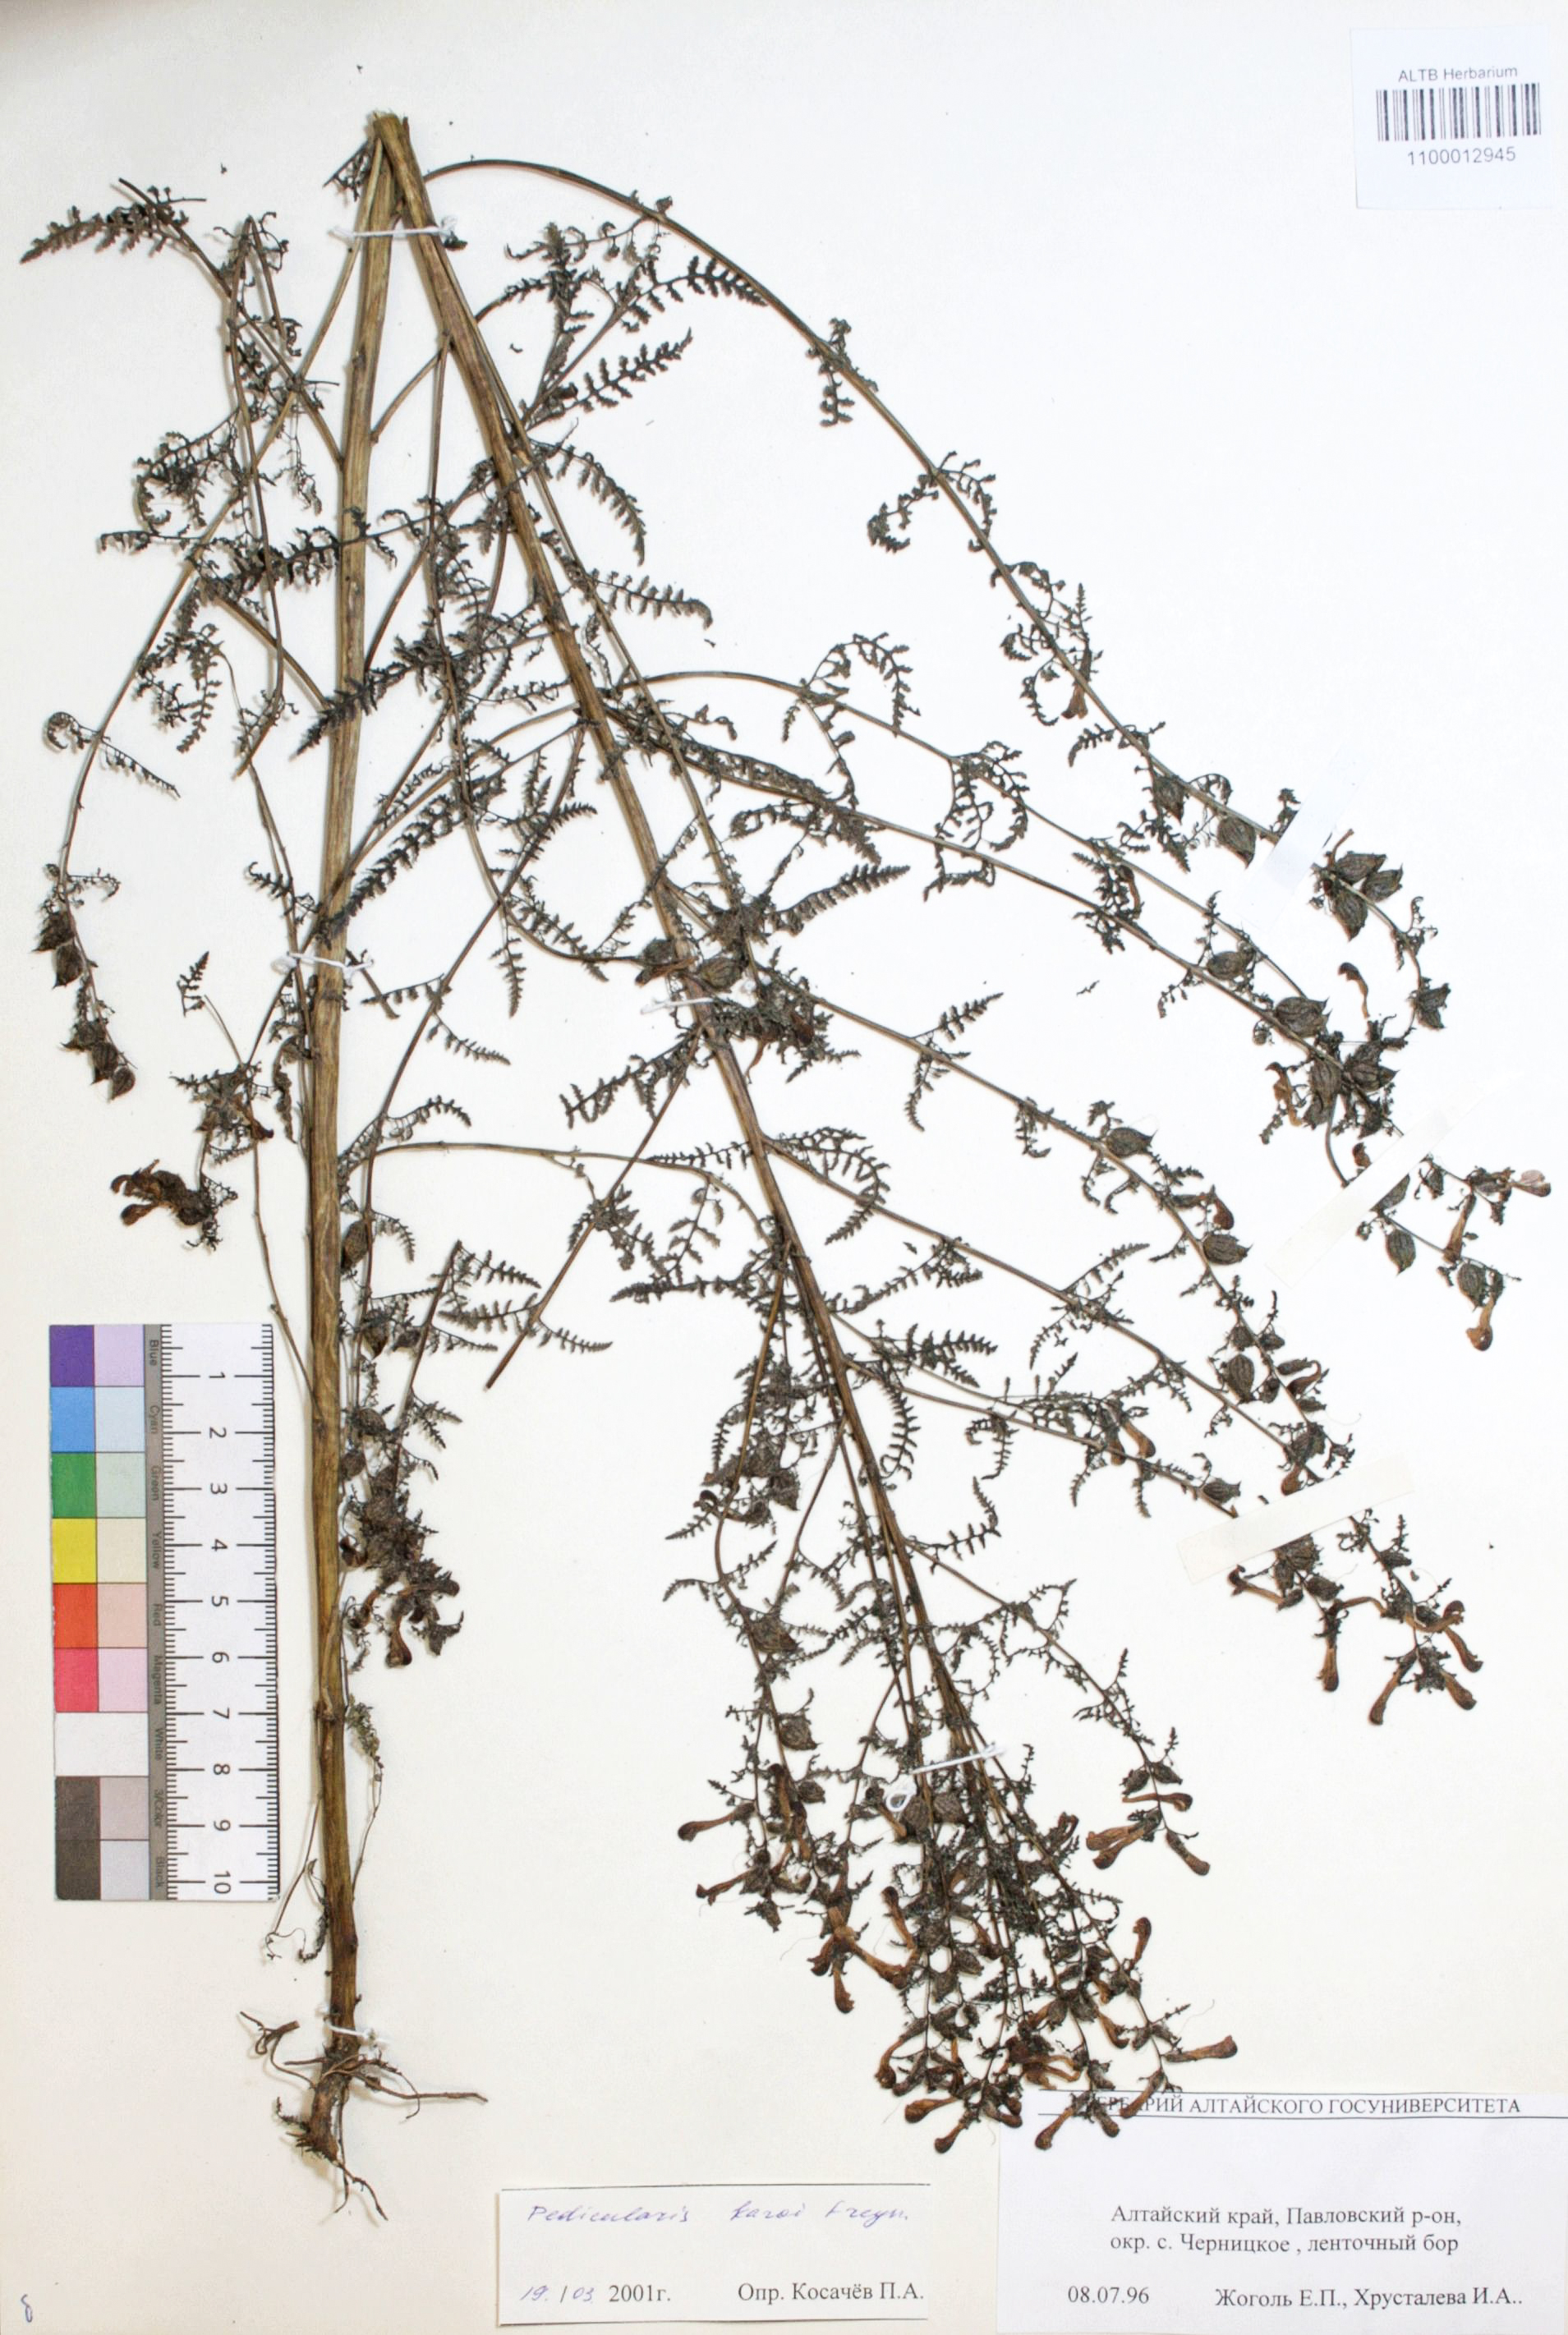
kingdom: Plantae
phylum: Tracheophyta
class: Magnoliopsida
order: Lamiales
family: Orobanchaceae
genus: Pedicularis
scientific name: Pedicularis karoi
